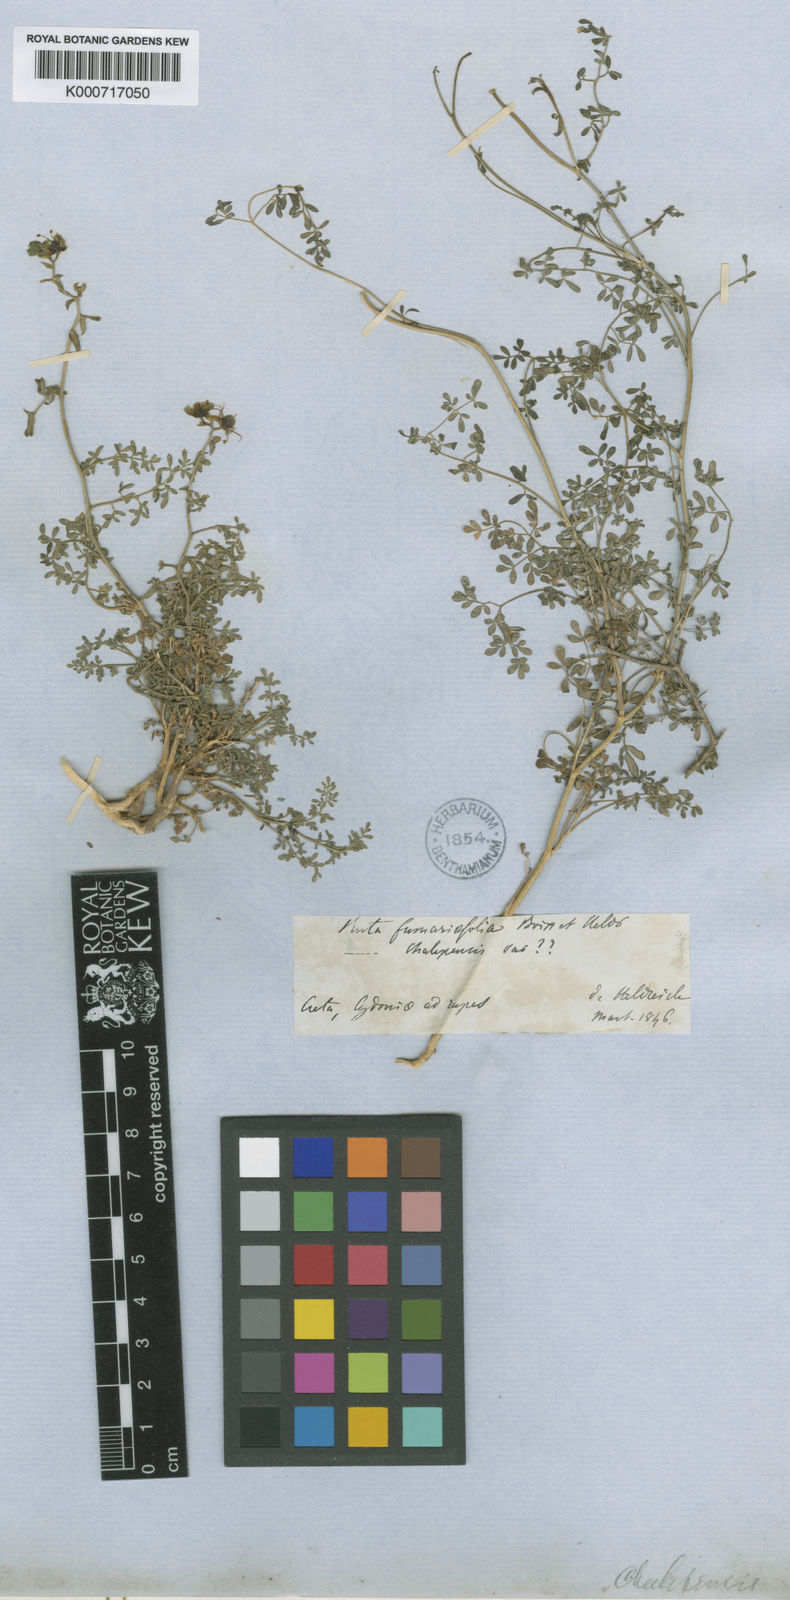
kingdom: Plantae
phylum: Tracheophyta
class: Magnoliopsida
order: Sapindales
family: Rutaceae
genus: Ruta
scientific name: Ruta
